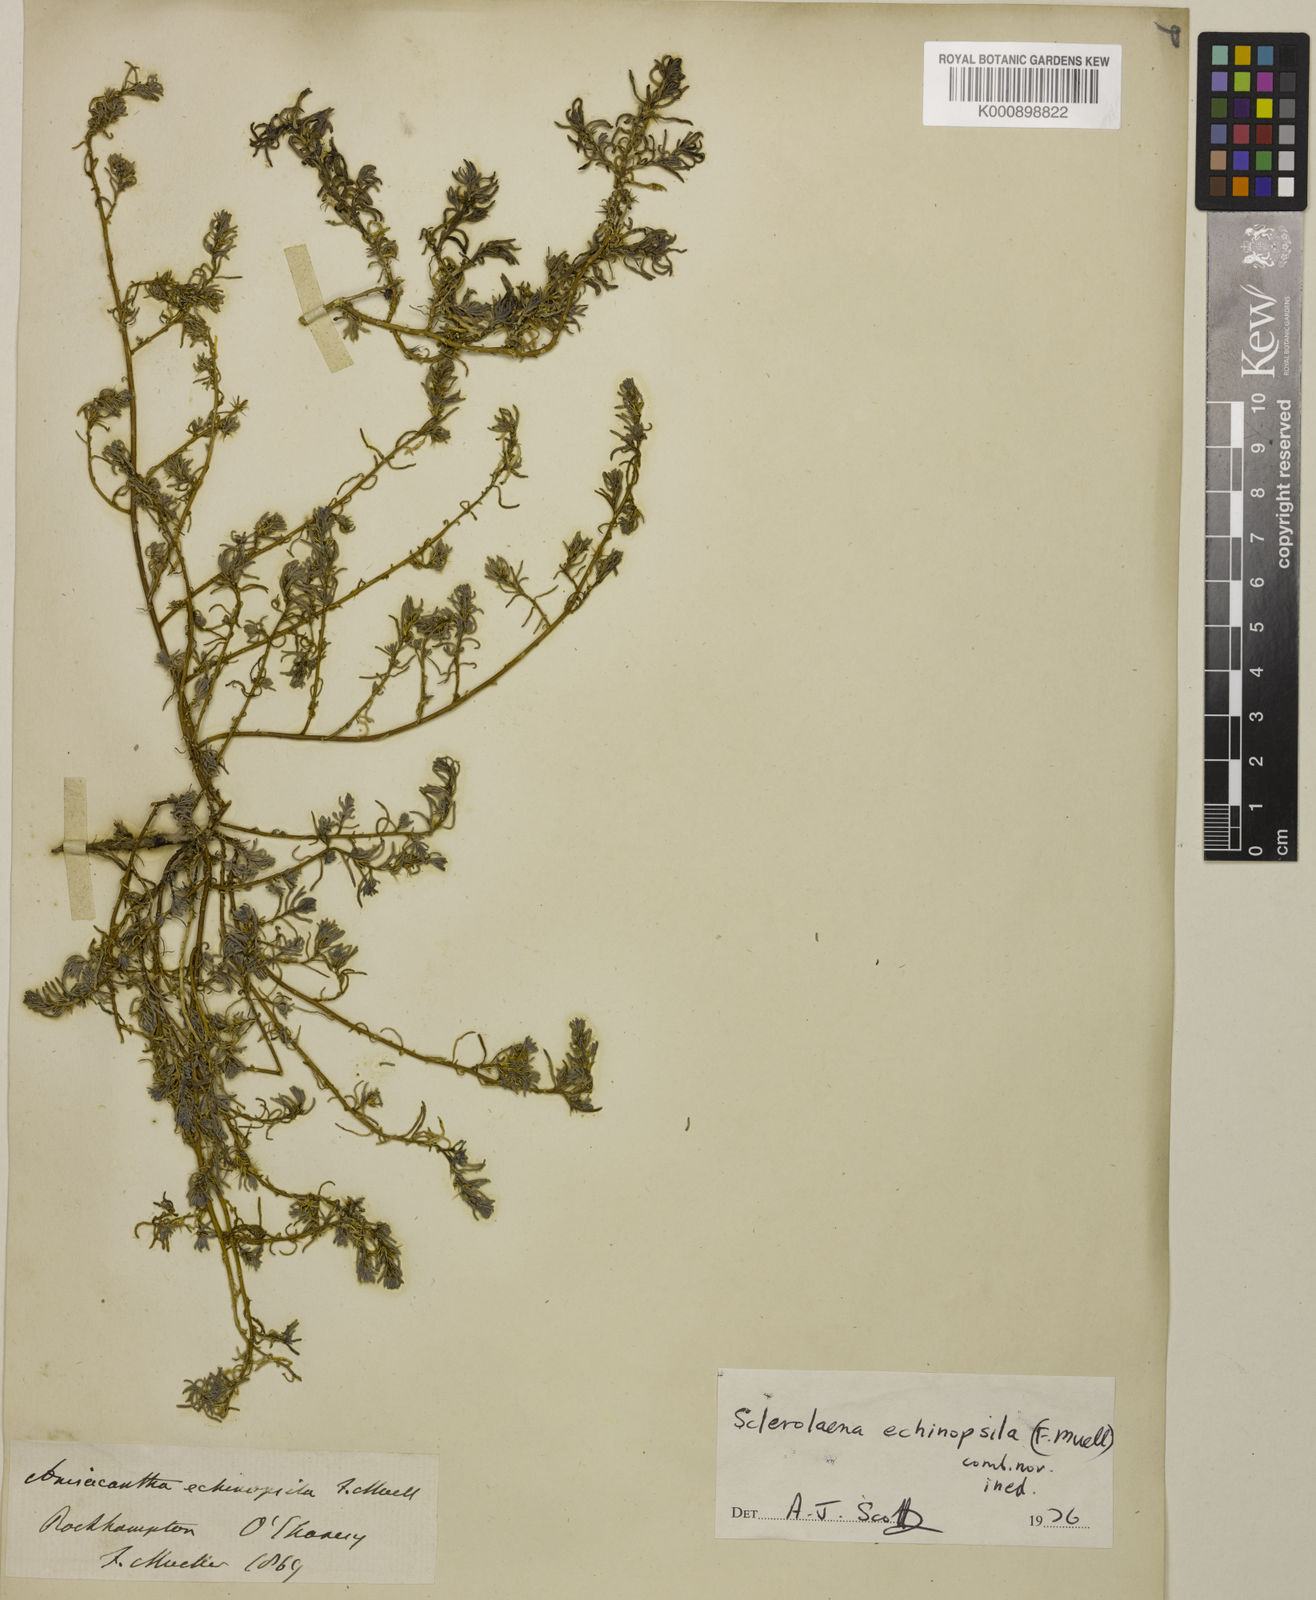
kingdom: Plantae
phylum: Tracheophyta
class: Magnoliopsida
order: Caryophyllales
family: Amaranthaceae
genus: Sclerolaena
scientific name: Sclerolaena anisacanthoides
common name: Yellowbur
